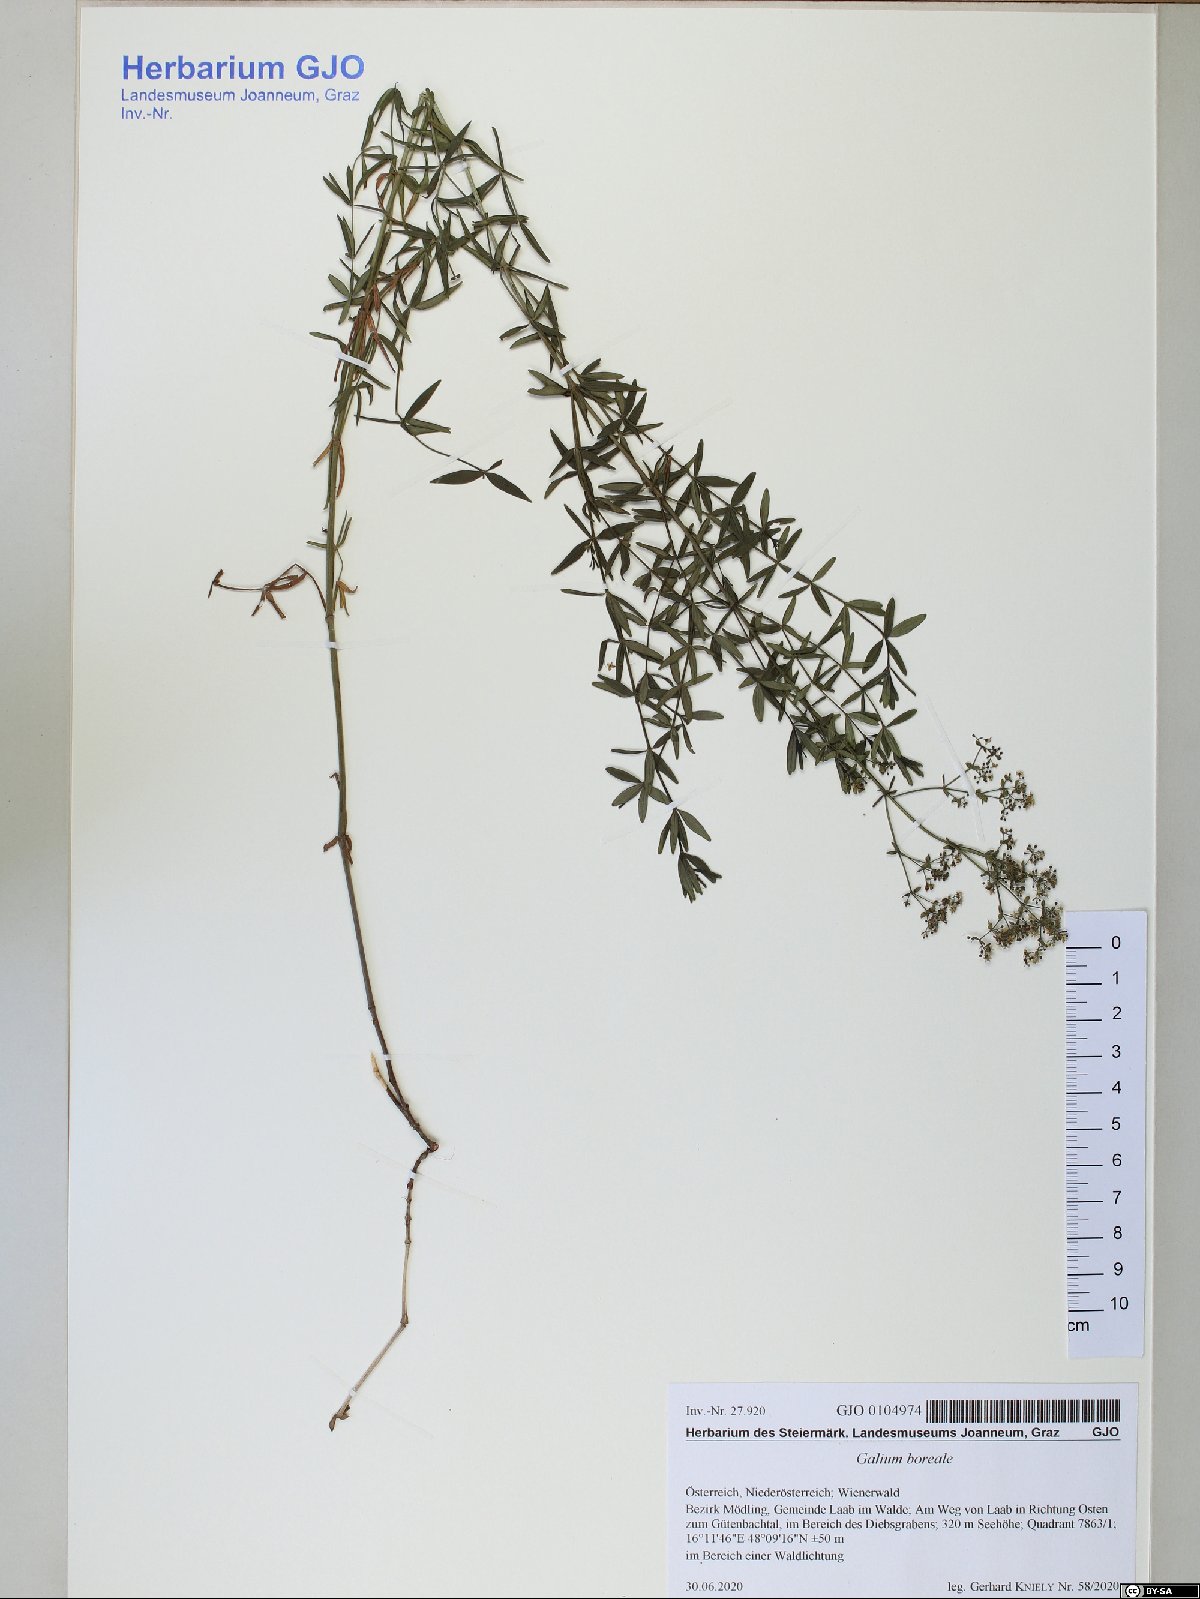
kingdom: Plantae
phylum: Tracheophyta
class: Magnoliopsida
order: Gentianales
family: Rubiaceae
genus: Galium
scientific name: Galium boreale
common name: Northern bedstraw
